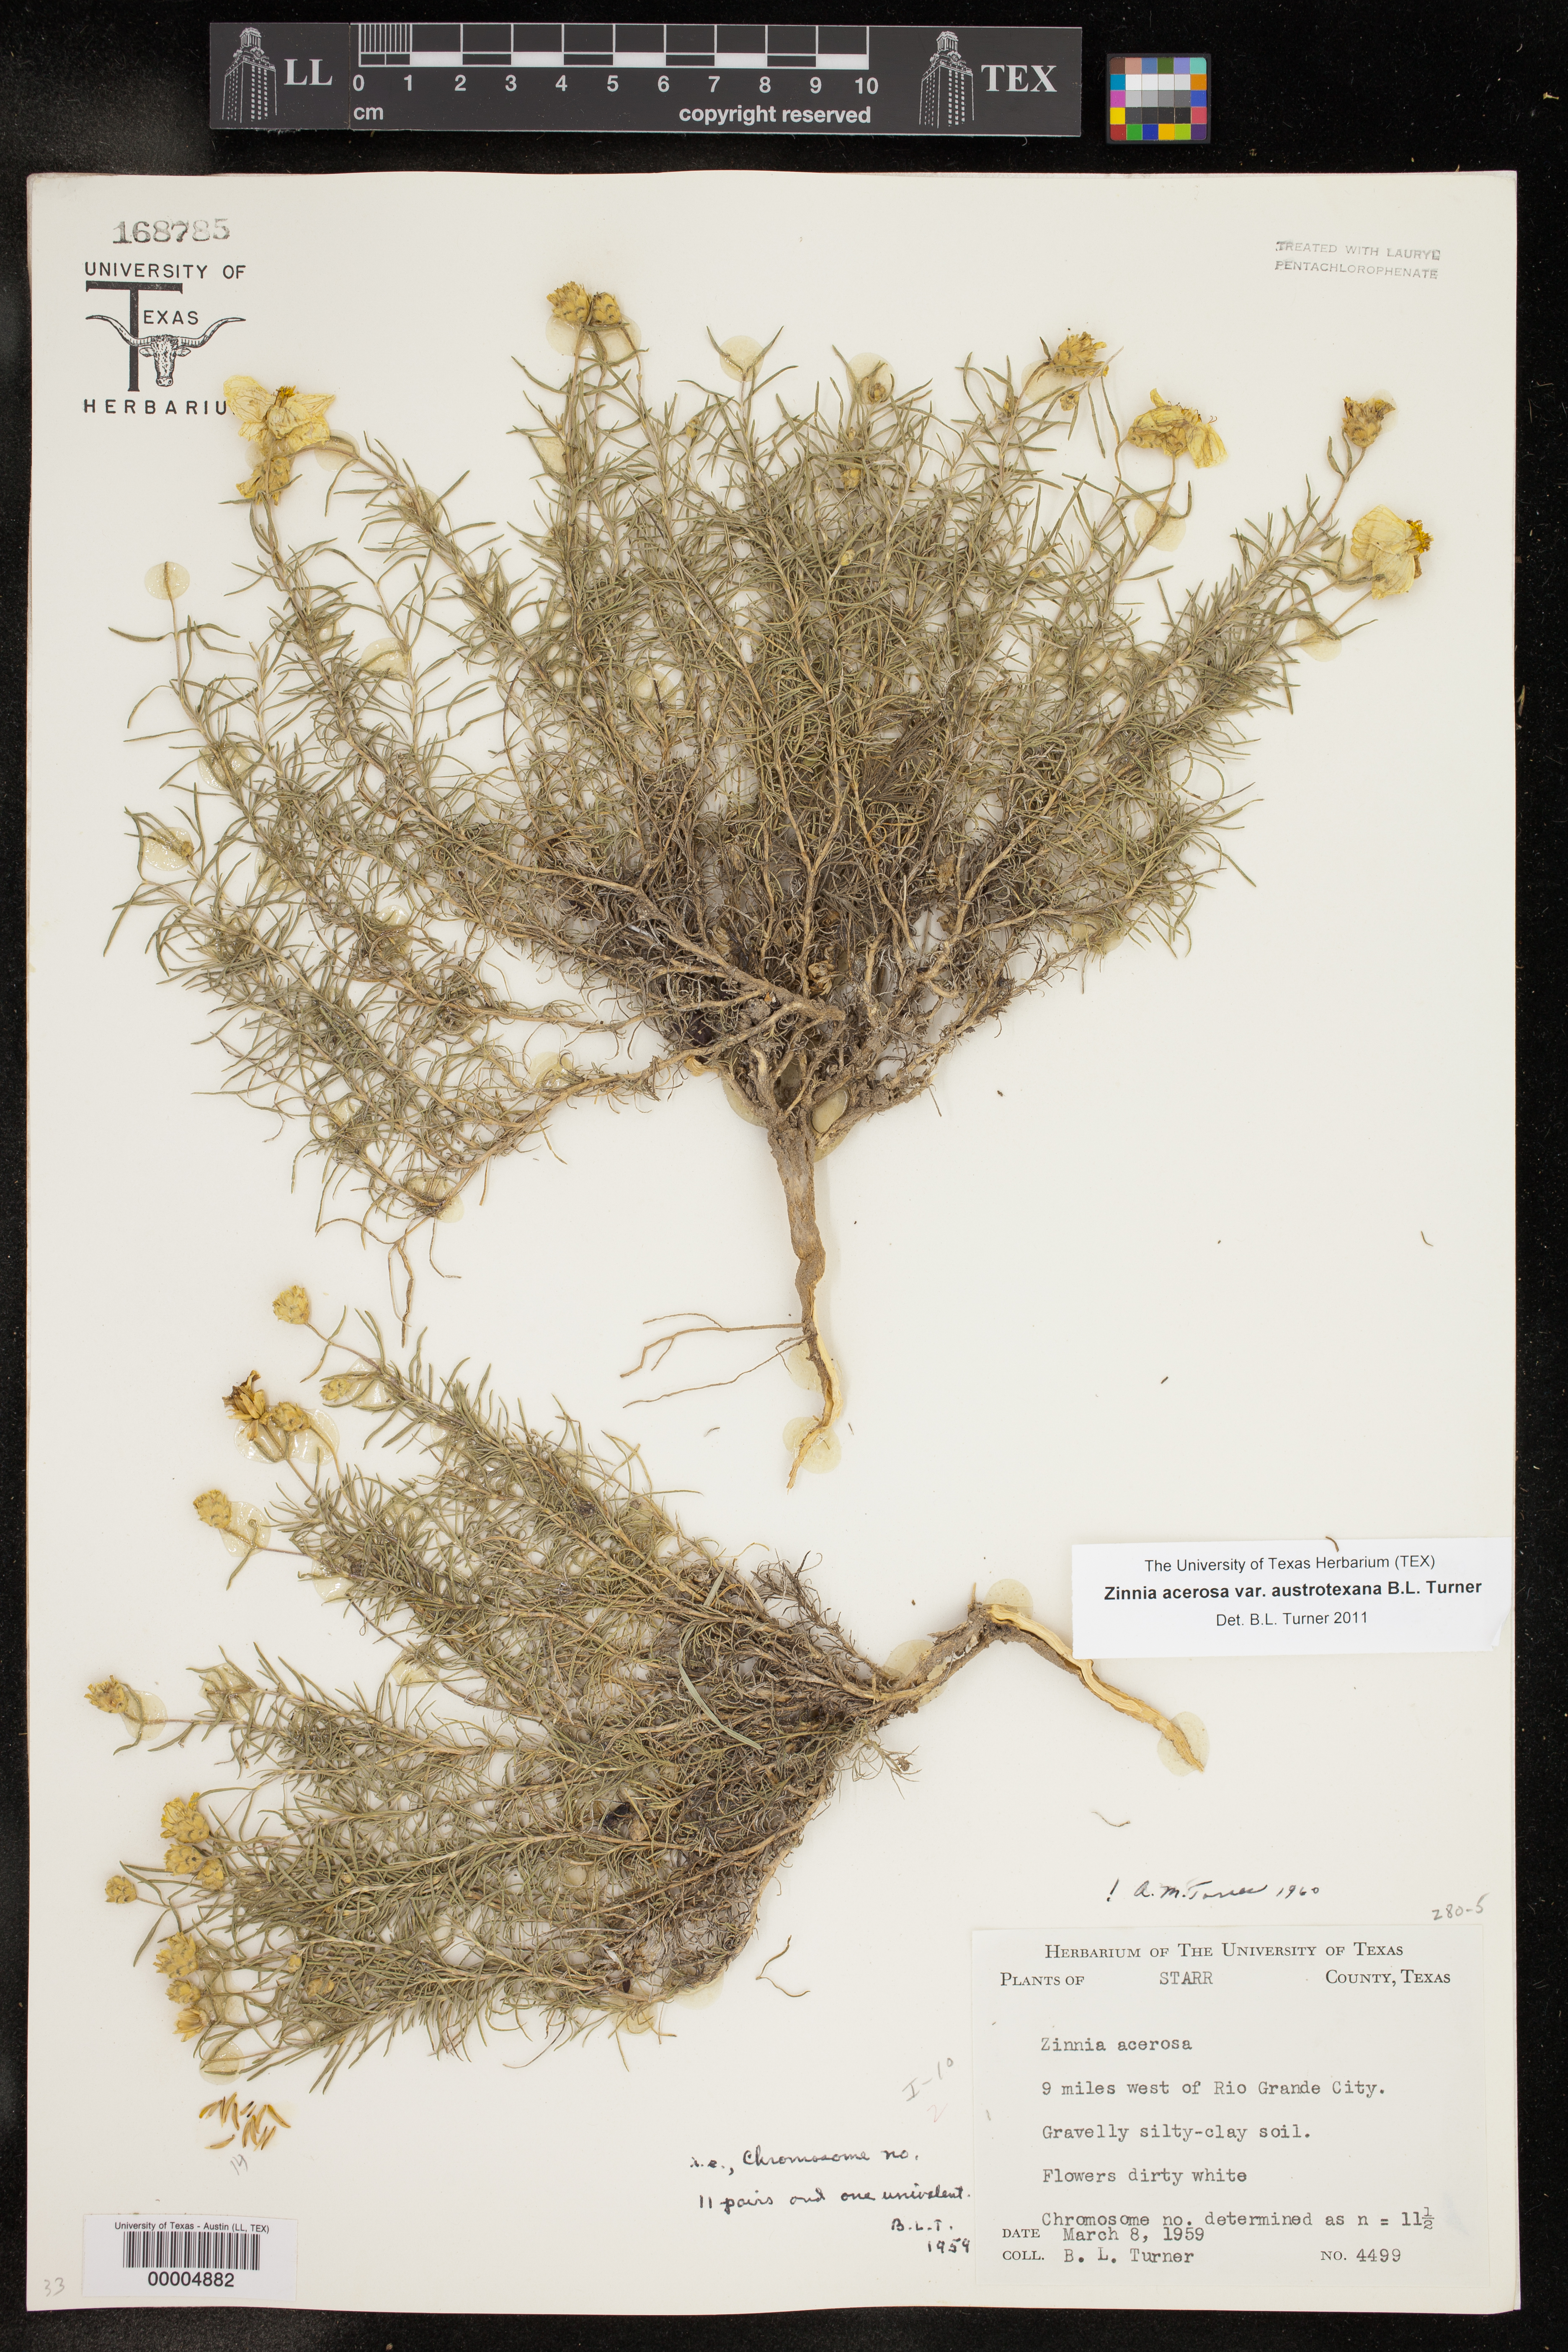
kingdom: Plantae
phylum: Tracheophyta
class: Magnoliopsida
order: Asterales
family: Asteraceae
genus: Zinnia
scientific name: Zinnia acerosa
